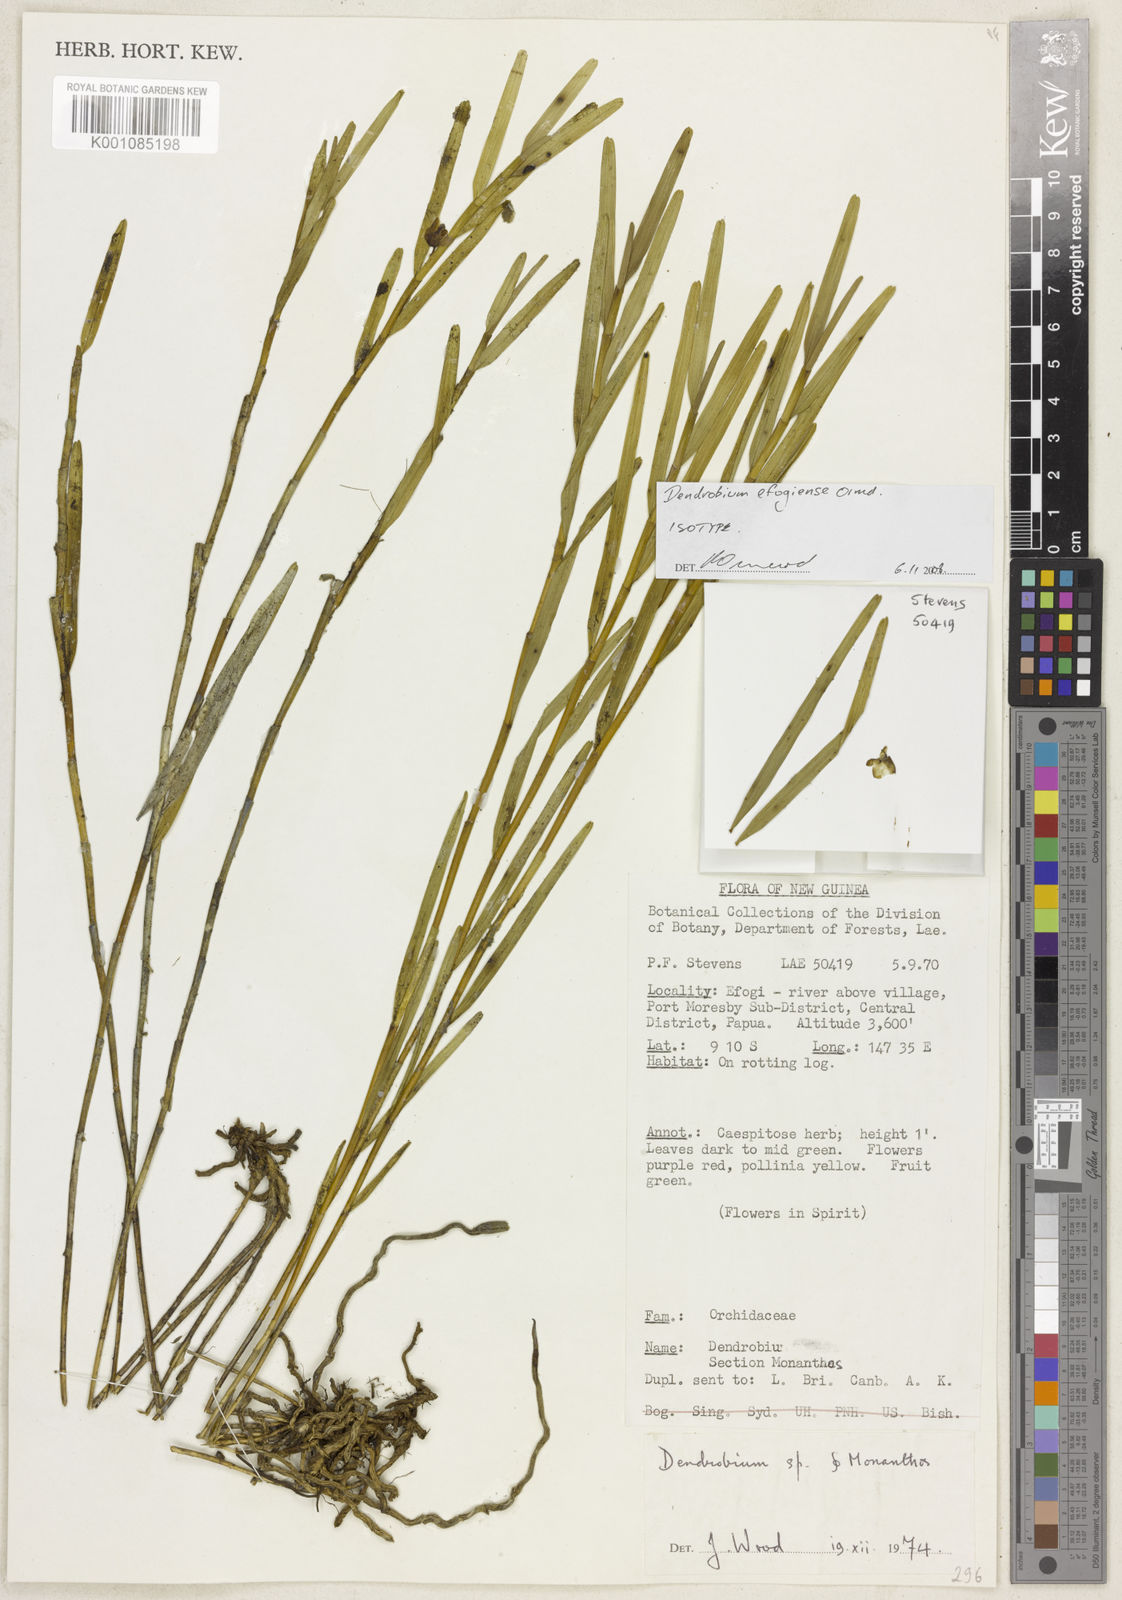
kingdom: Plantae
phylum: Tracheophyta
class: Liliopsida
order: Asparagales
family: Orchidaceae
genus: Dendrobium
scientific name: Dendrobium efogiense
